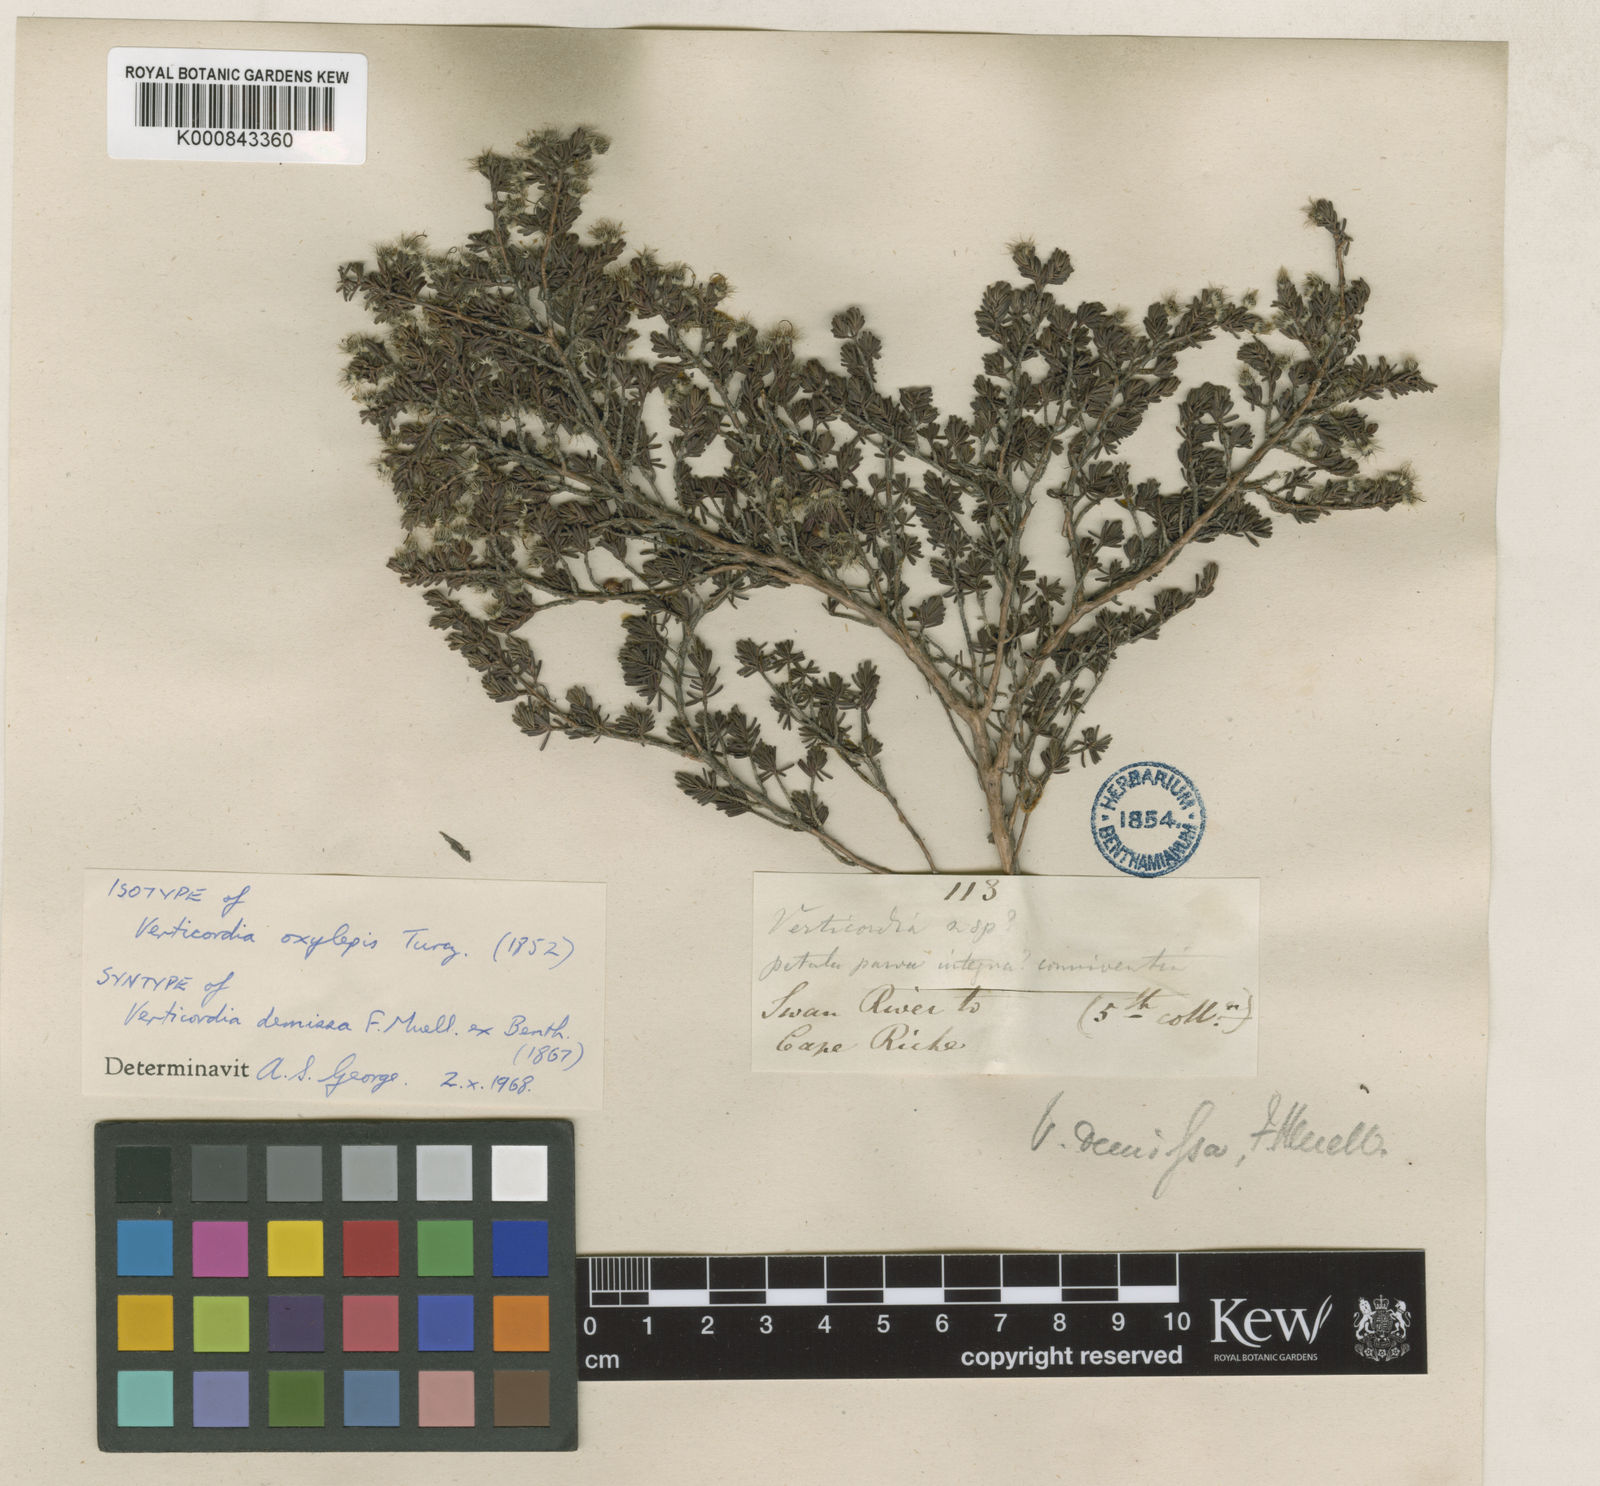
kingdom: Plantae
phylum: Tracheophyta
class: Magnoliopsida
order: Myrtales
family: Myrtaceae
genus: Verticordia
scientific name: Verticordia oxylepis
